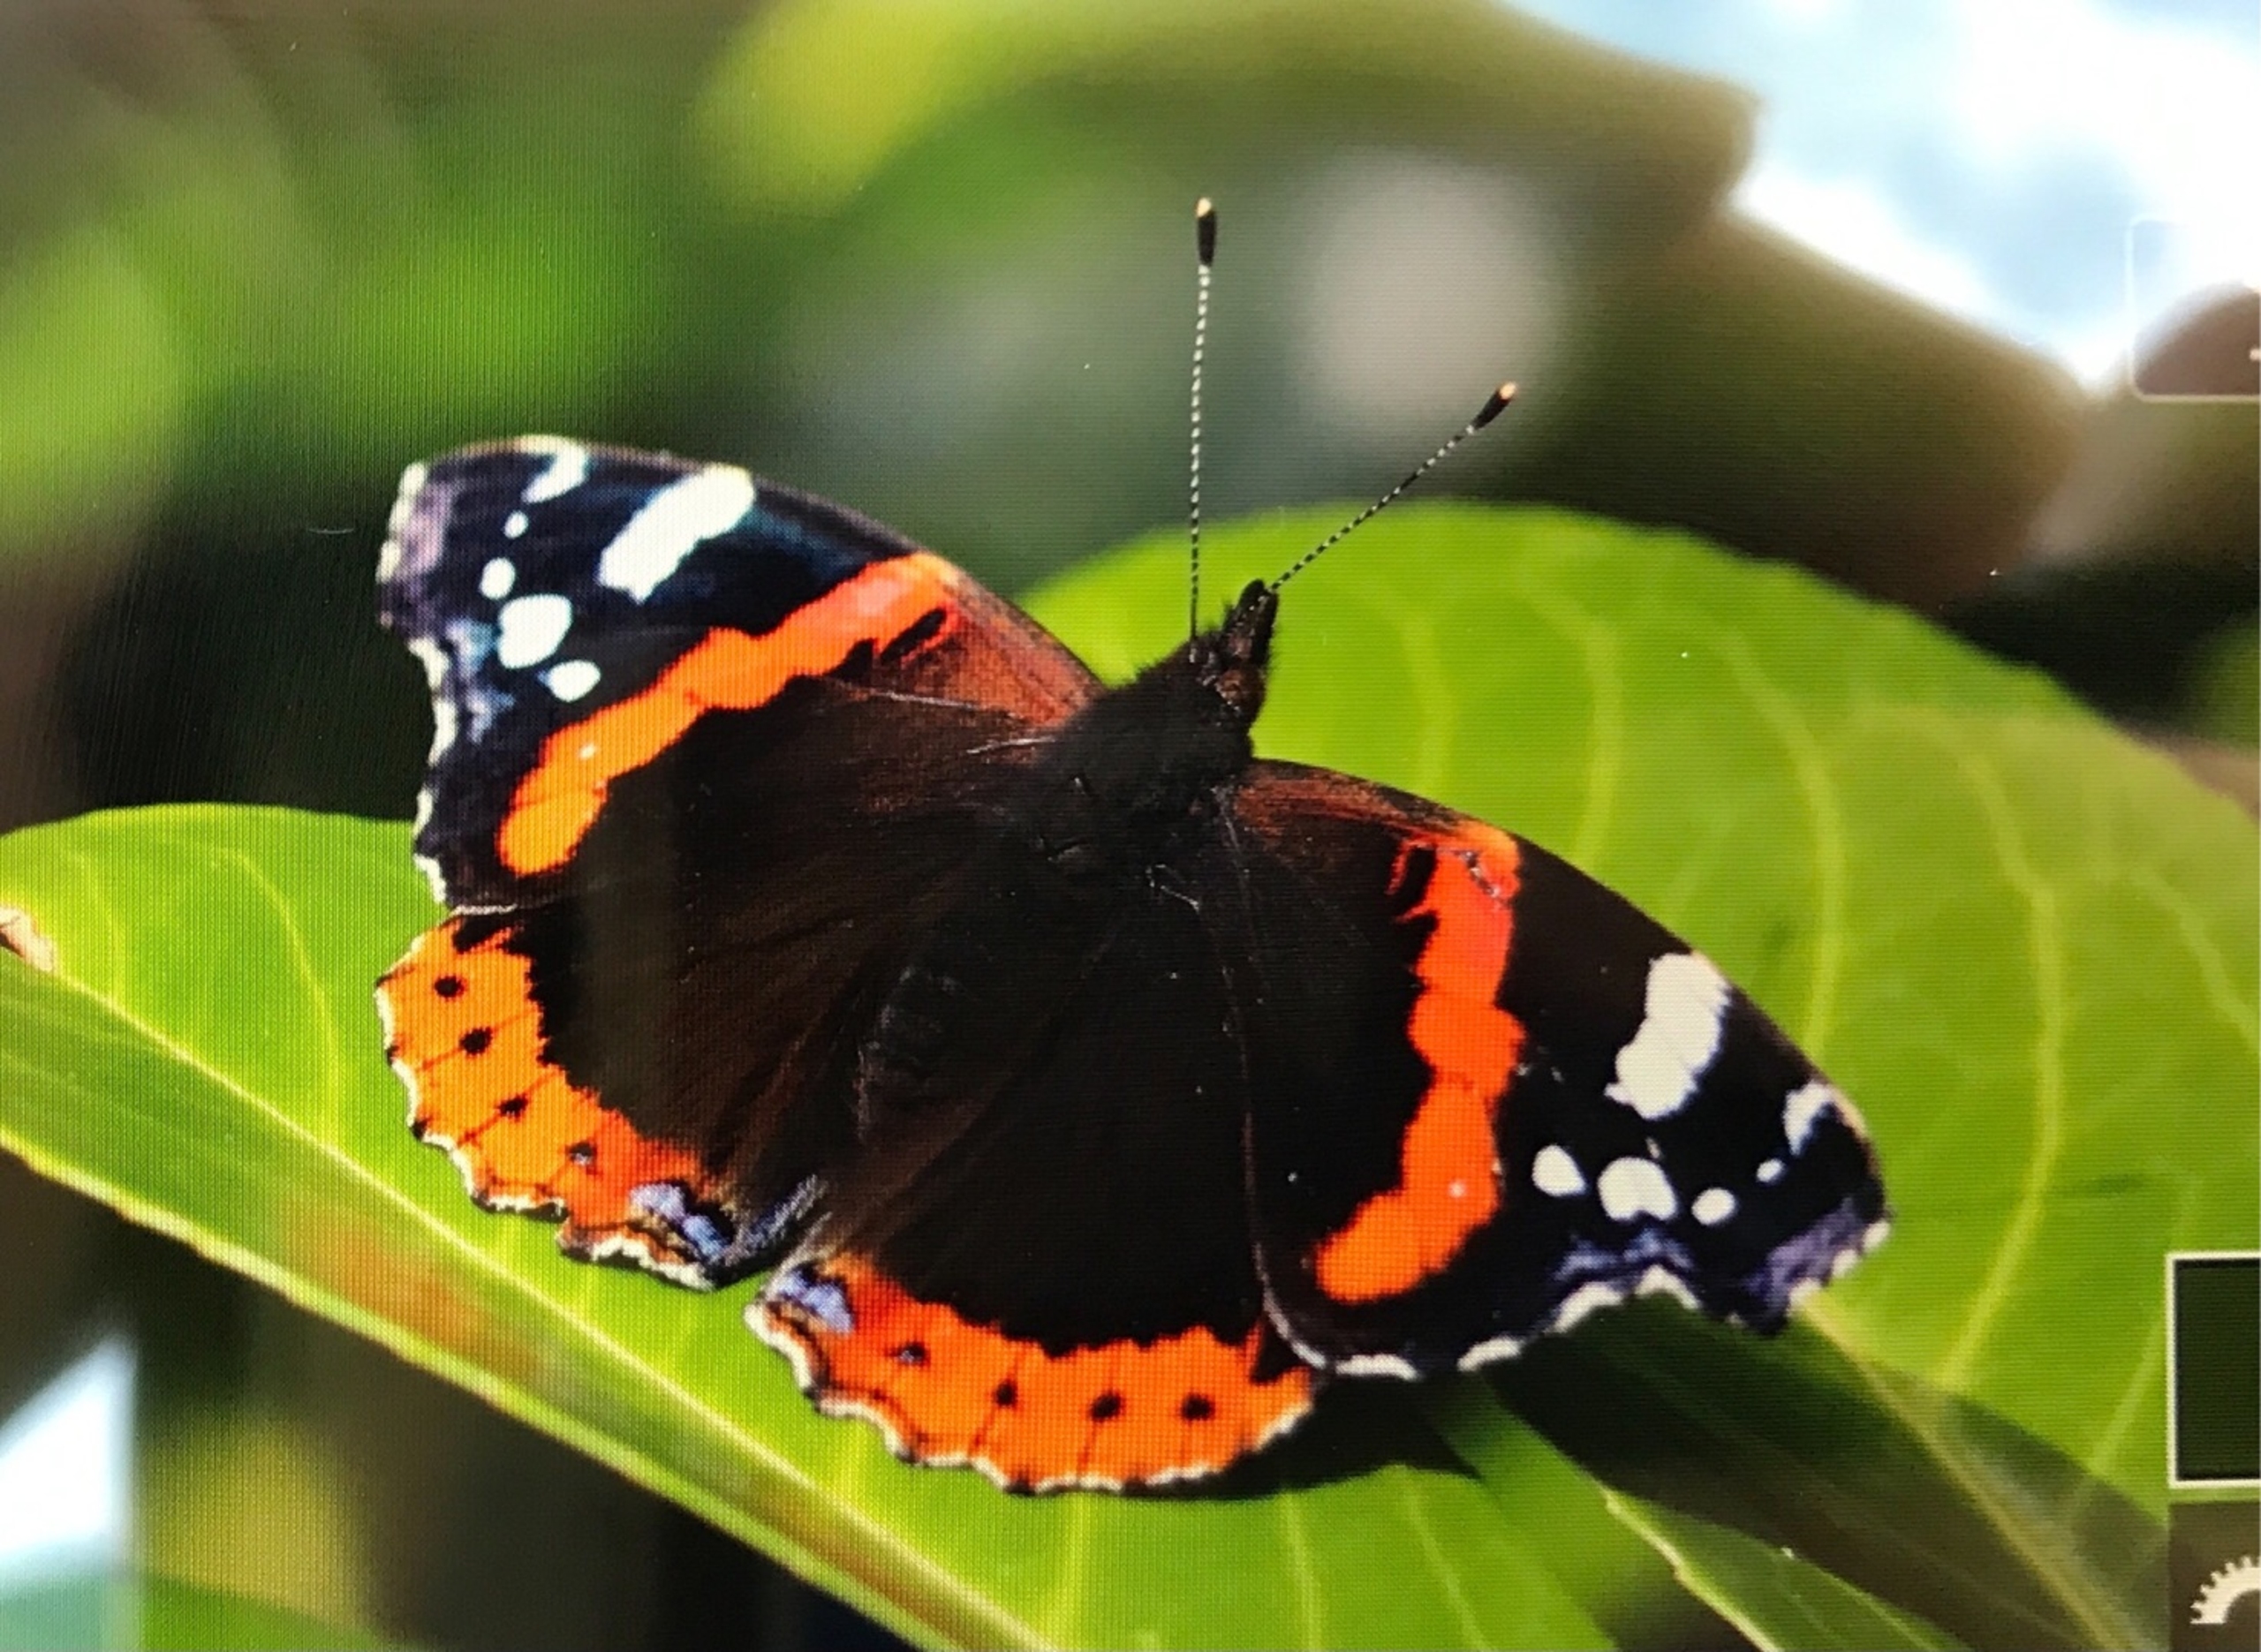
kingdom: Animalia
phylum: Arthropoda
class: Insecta
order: Lepidoptera
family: Nymphalidae
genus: Vanessa
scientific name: Vanessa atalanta
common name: Admiral
